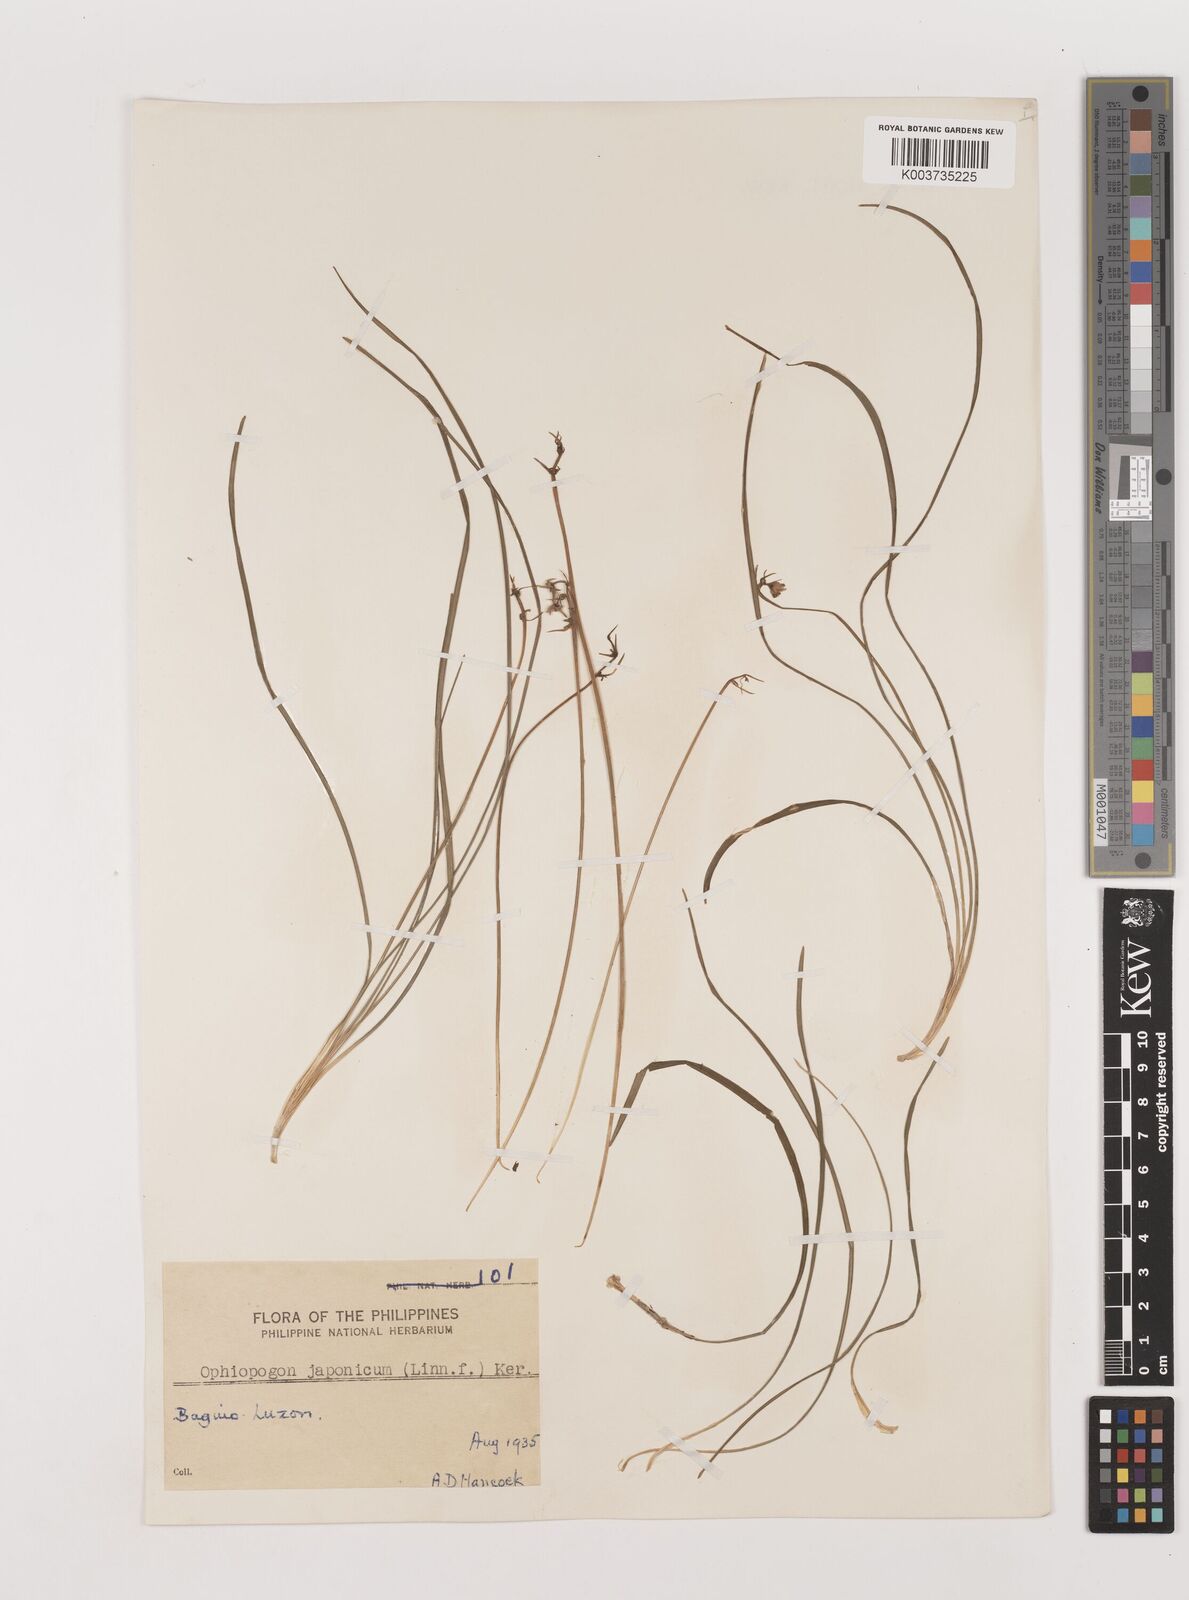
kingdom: Plantae
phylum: Tracheophyta
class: Liliopsida
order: Asparagales
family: Asparagaceae
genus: Ophiopogon
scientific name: Ophiopogon japonicus
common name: Dwarf lilyturf
